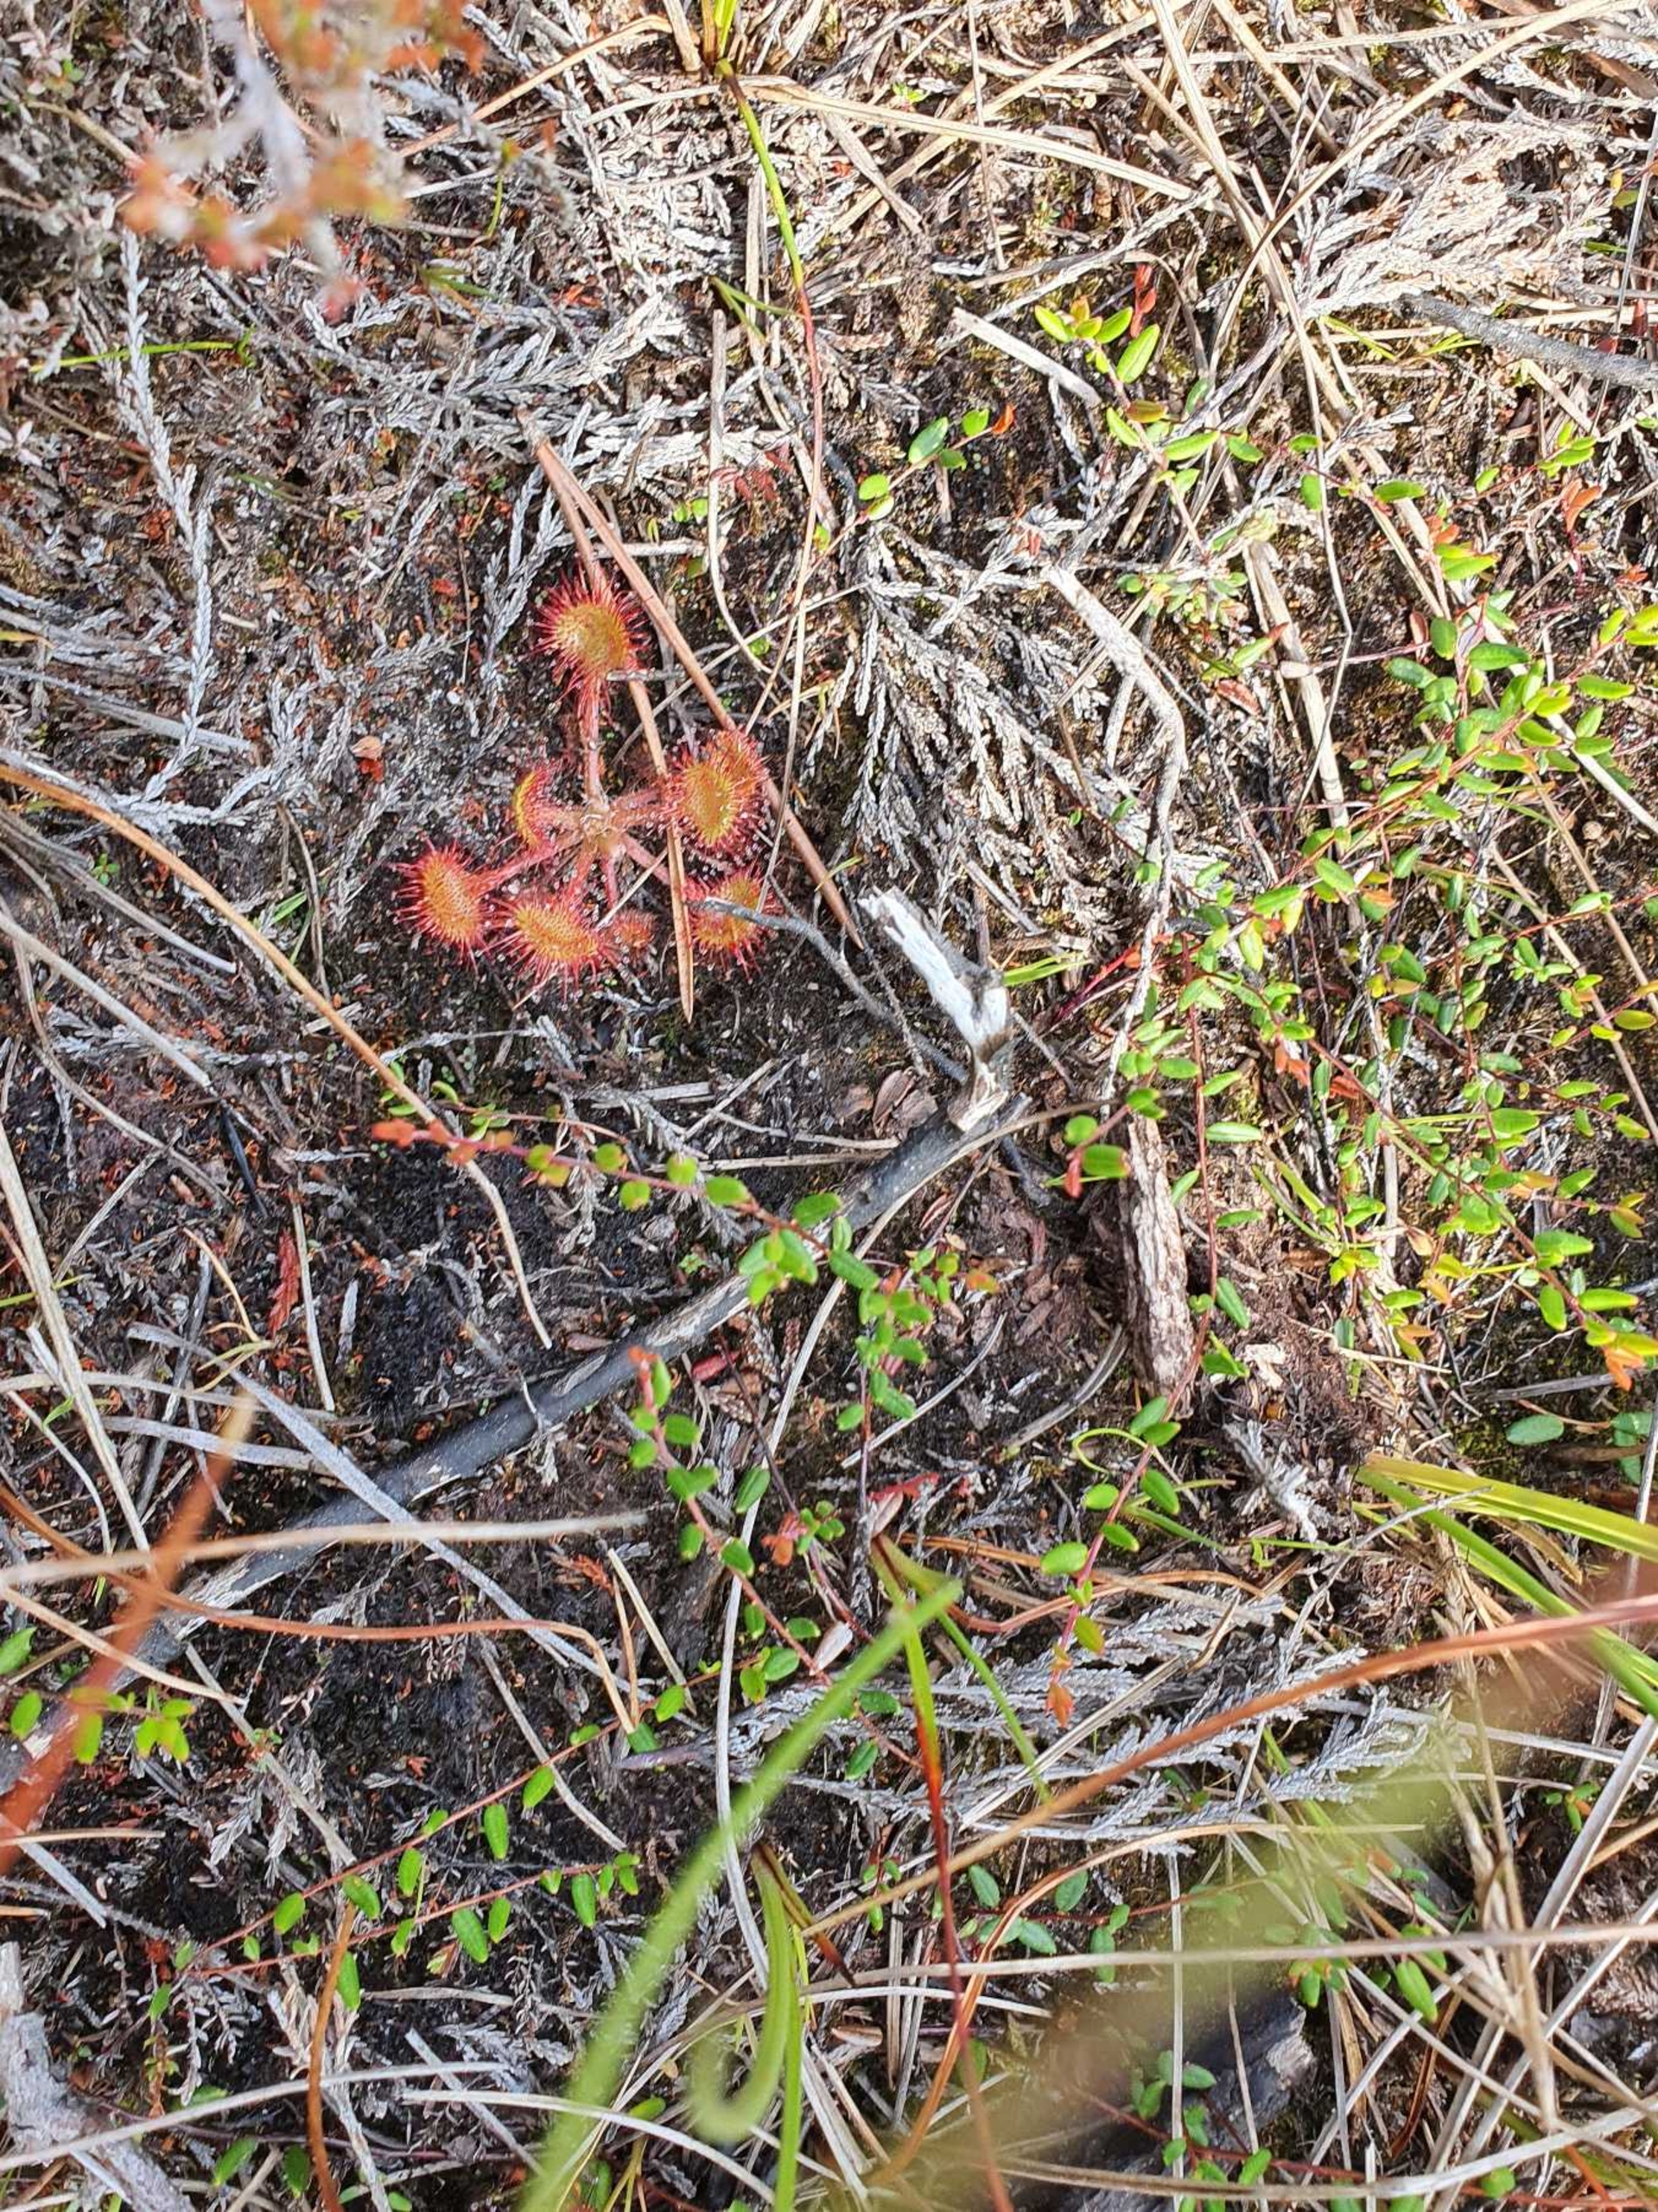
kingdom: Plantae
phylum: Tracheophyta
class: Magnoliopsida
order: Caryophyllales
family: Droseraceae
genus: Drosera
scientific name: Drosera rotundifolia
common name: Rundbladet soldug
